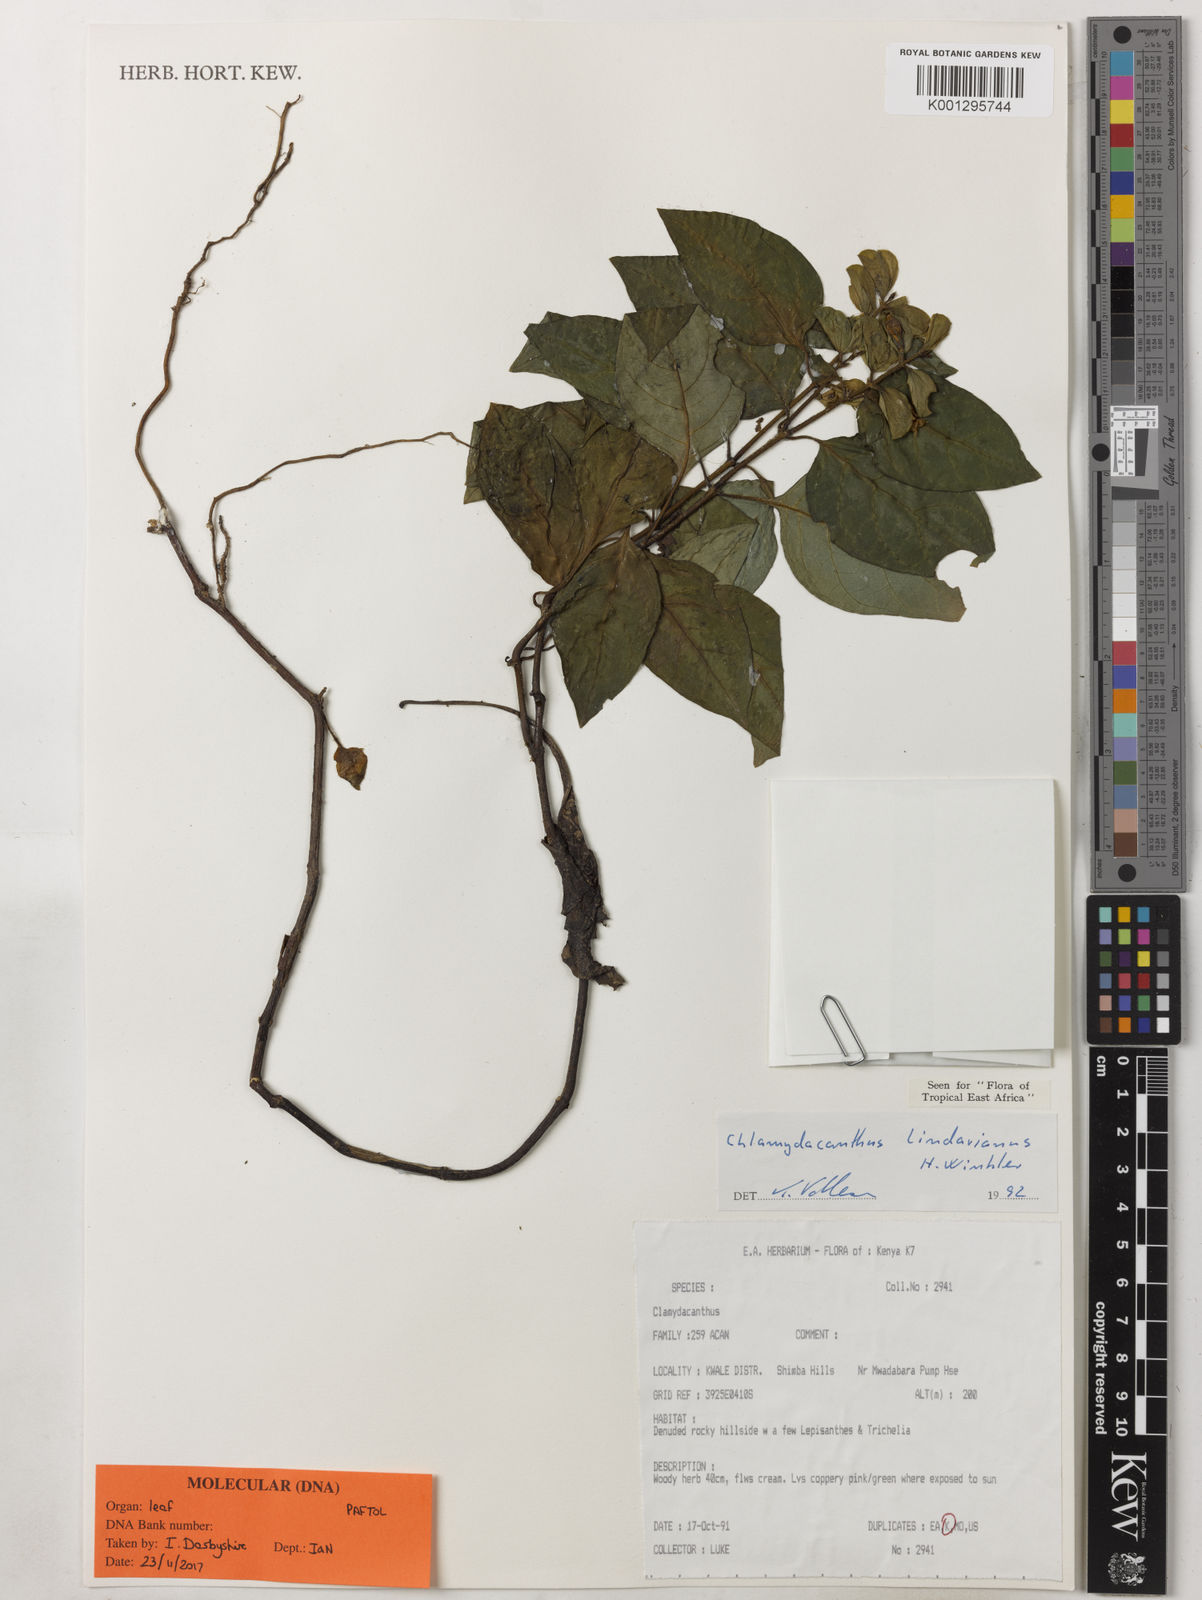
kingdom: Plantae
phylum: Tracheophyta
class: Magnoliopsida
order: Lamiales
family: Acanthaceae
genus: Chlamydacanthus
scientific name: Chlamydacanthus lindavianus
